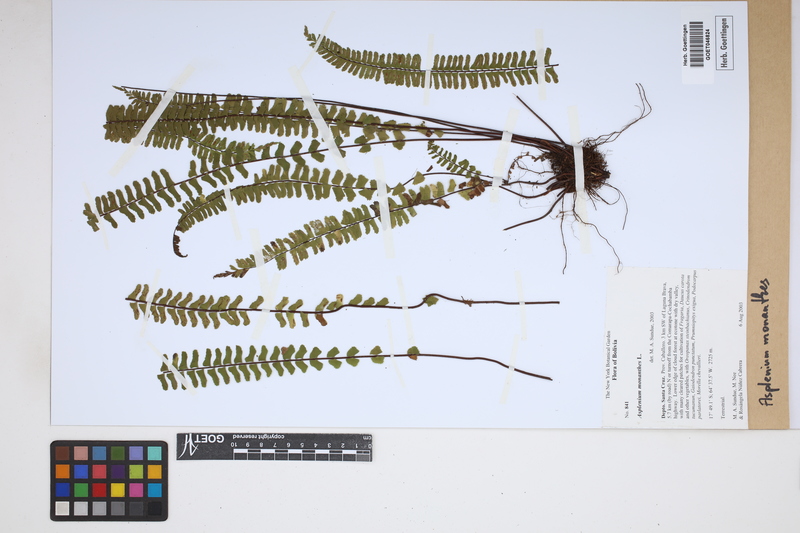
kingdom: Plantae
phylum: Tracheophyta
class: Polypodiopsida
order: Polypodiales
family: Aspleniaceae
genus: Asplenium
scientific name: Asplenium monanthes
